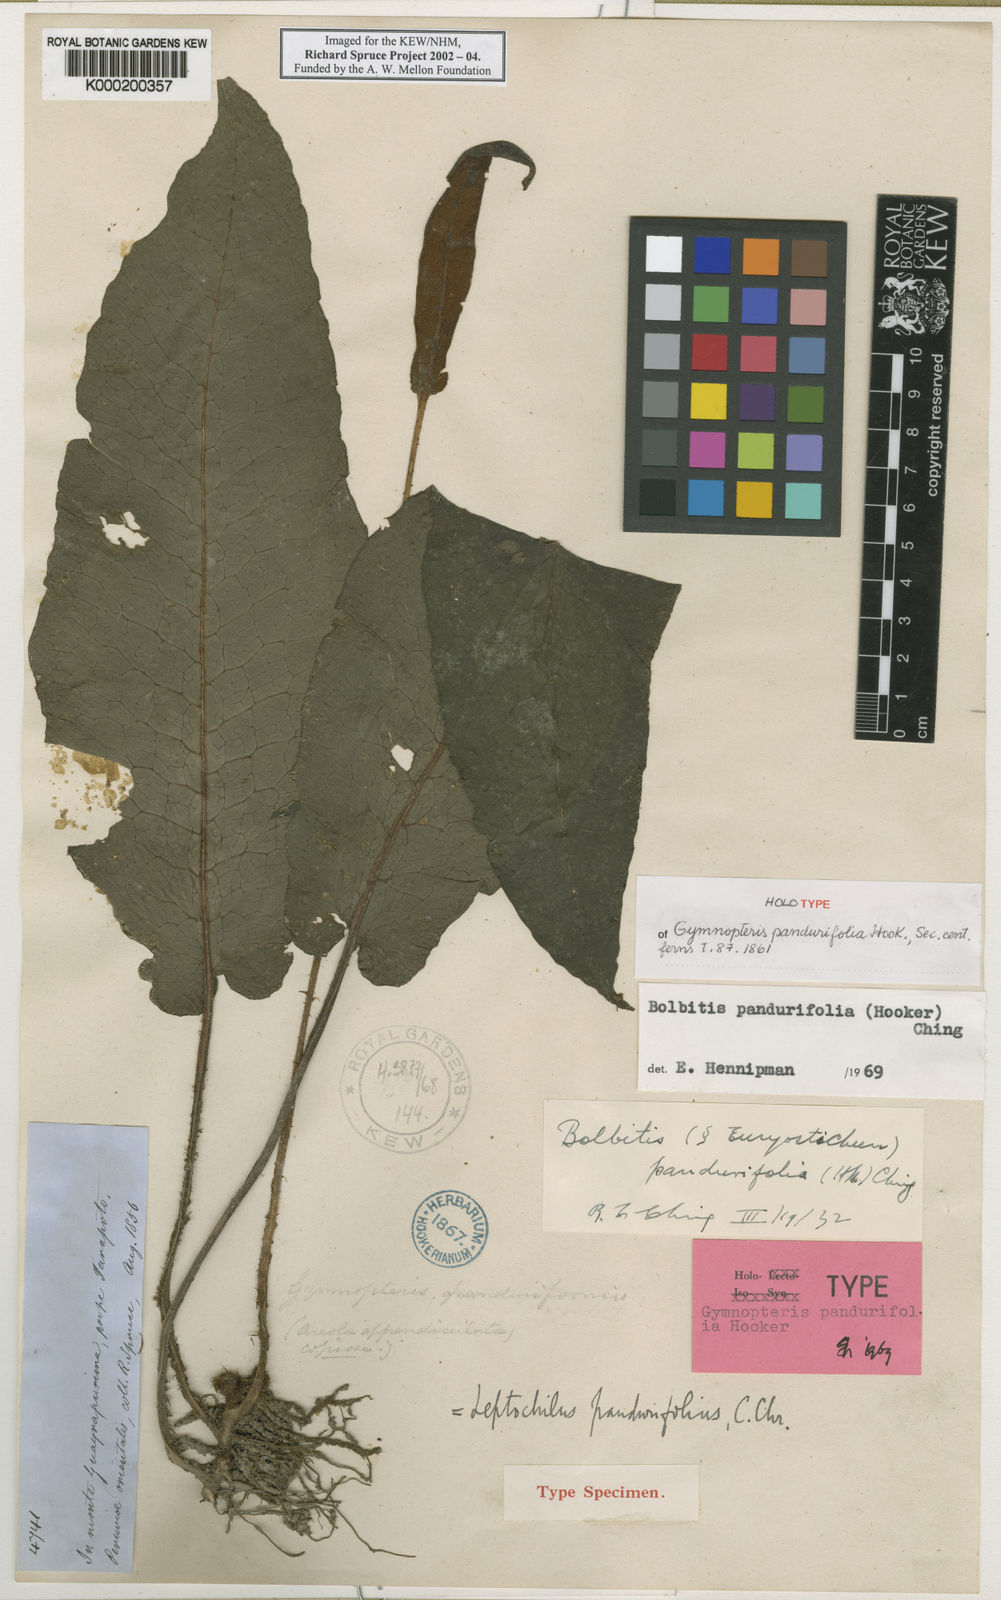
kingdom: Plantae
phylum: Tracheophyta
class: Polypodiopsida
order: Polypodiales
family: Dryopteridaceae
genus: Bolbitis
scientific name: Bolbitis pandurifolia
